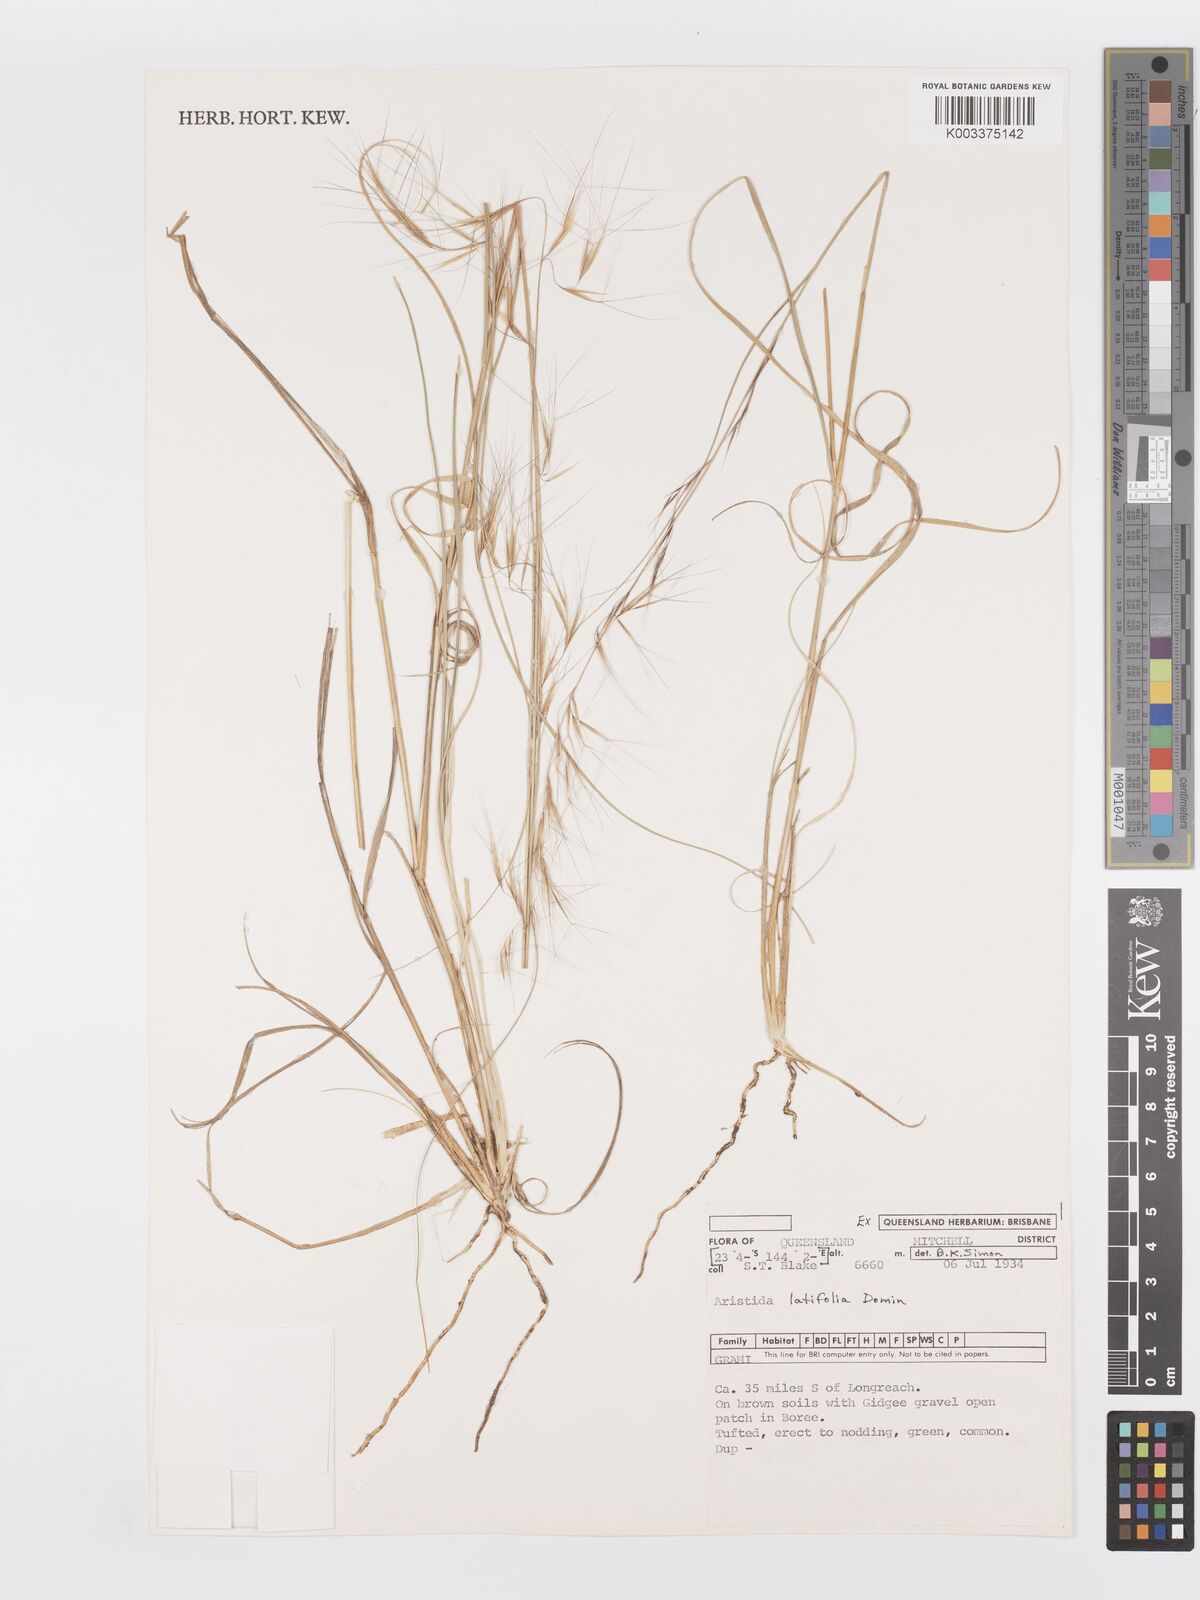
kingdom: Plantae
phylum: Tracheophyta
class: Liliopsida
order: Poales
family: Poaceae
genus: Aristida
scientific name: Aristida latifolia
